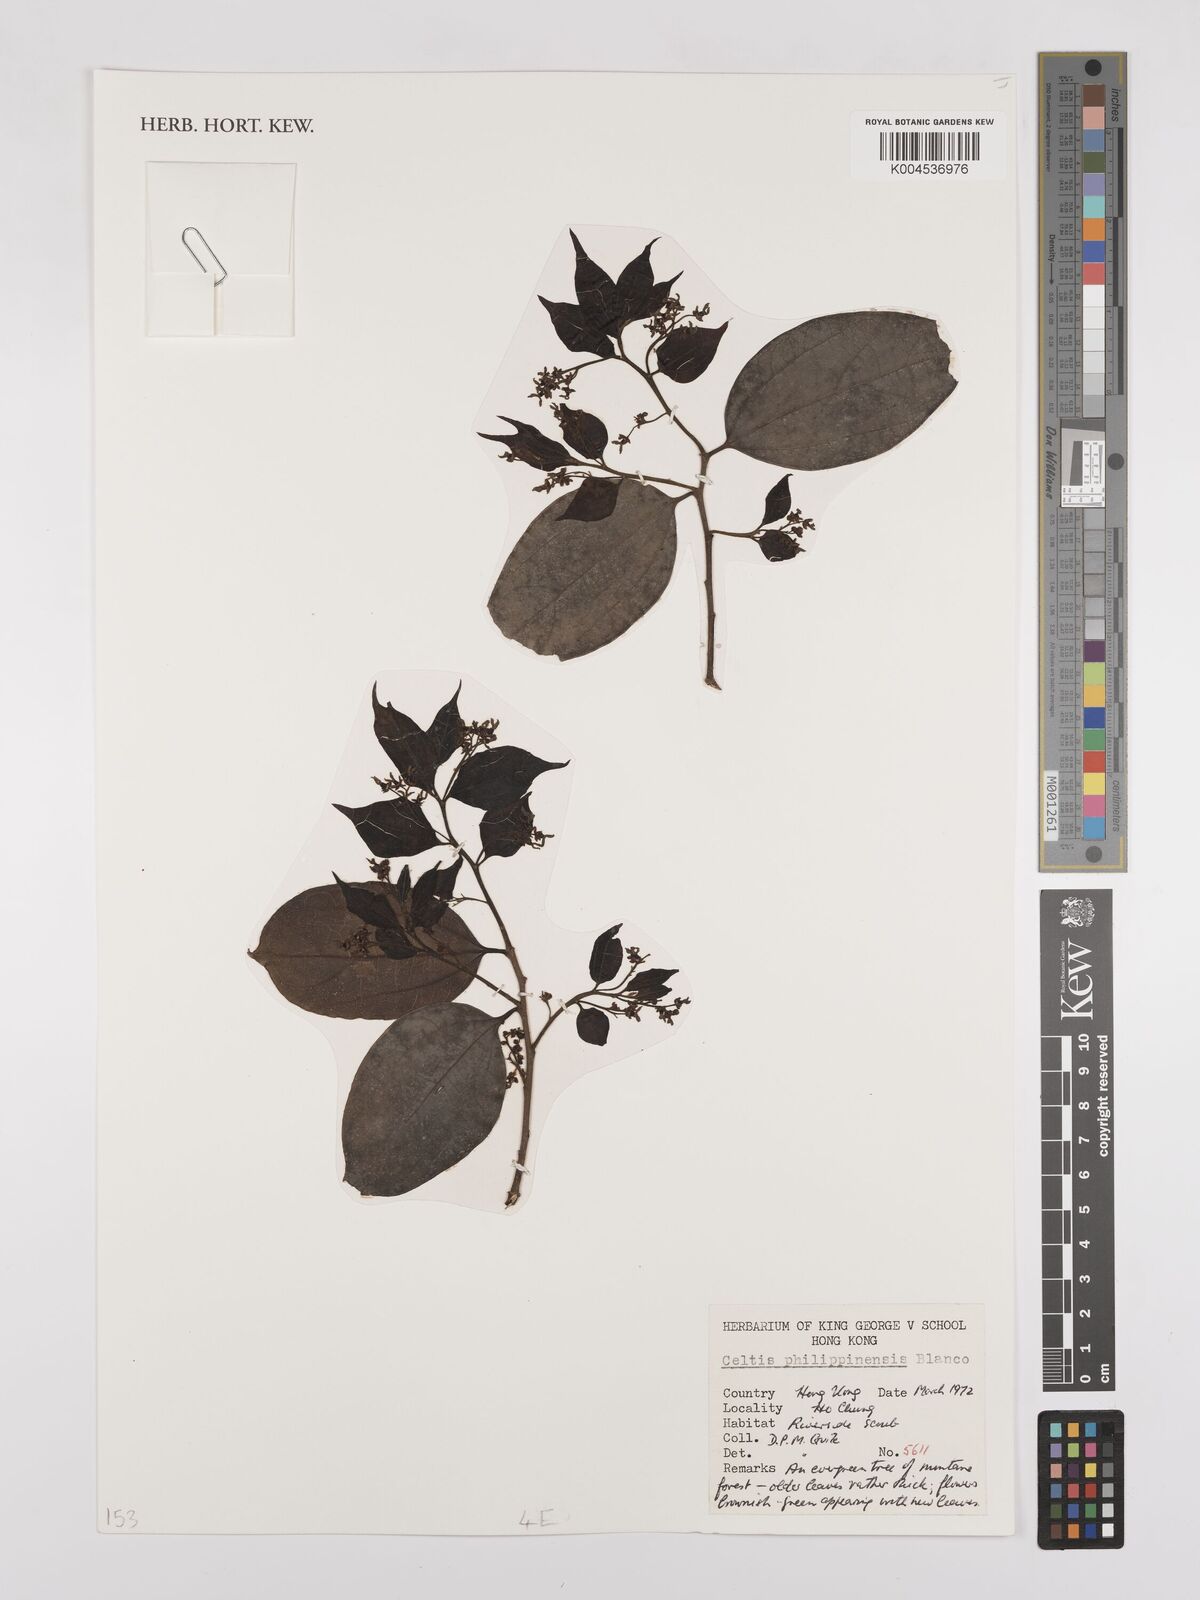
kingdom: Plantae
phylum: Tracheophyta
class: Magnoliopsida
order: Rosales
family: Cannabaceae
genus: Celtis
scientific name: Celtis philippensis
